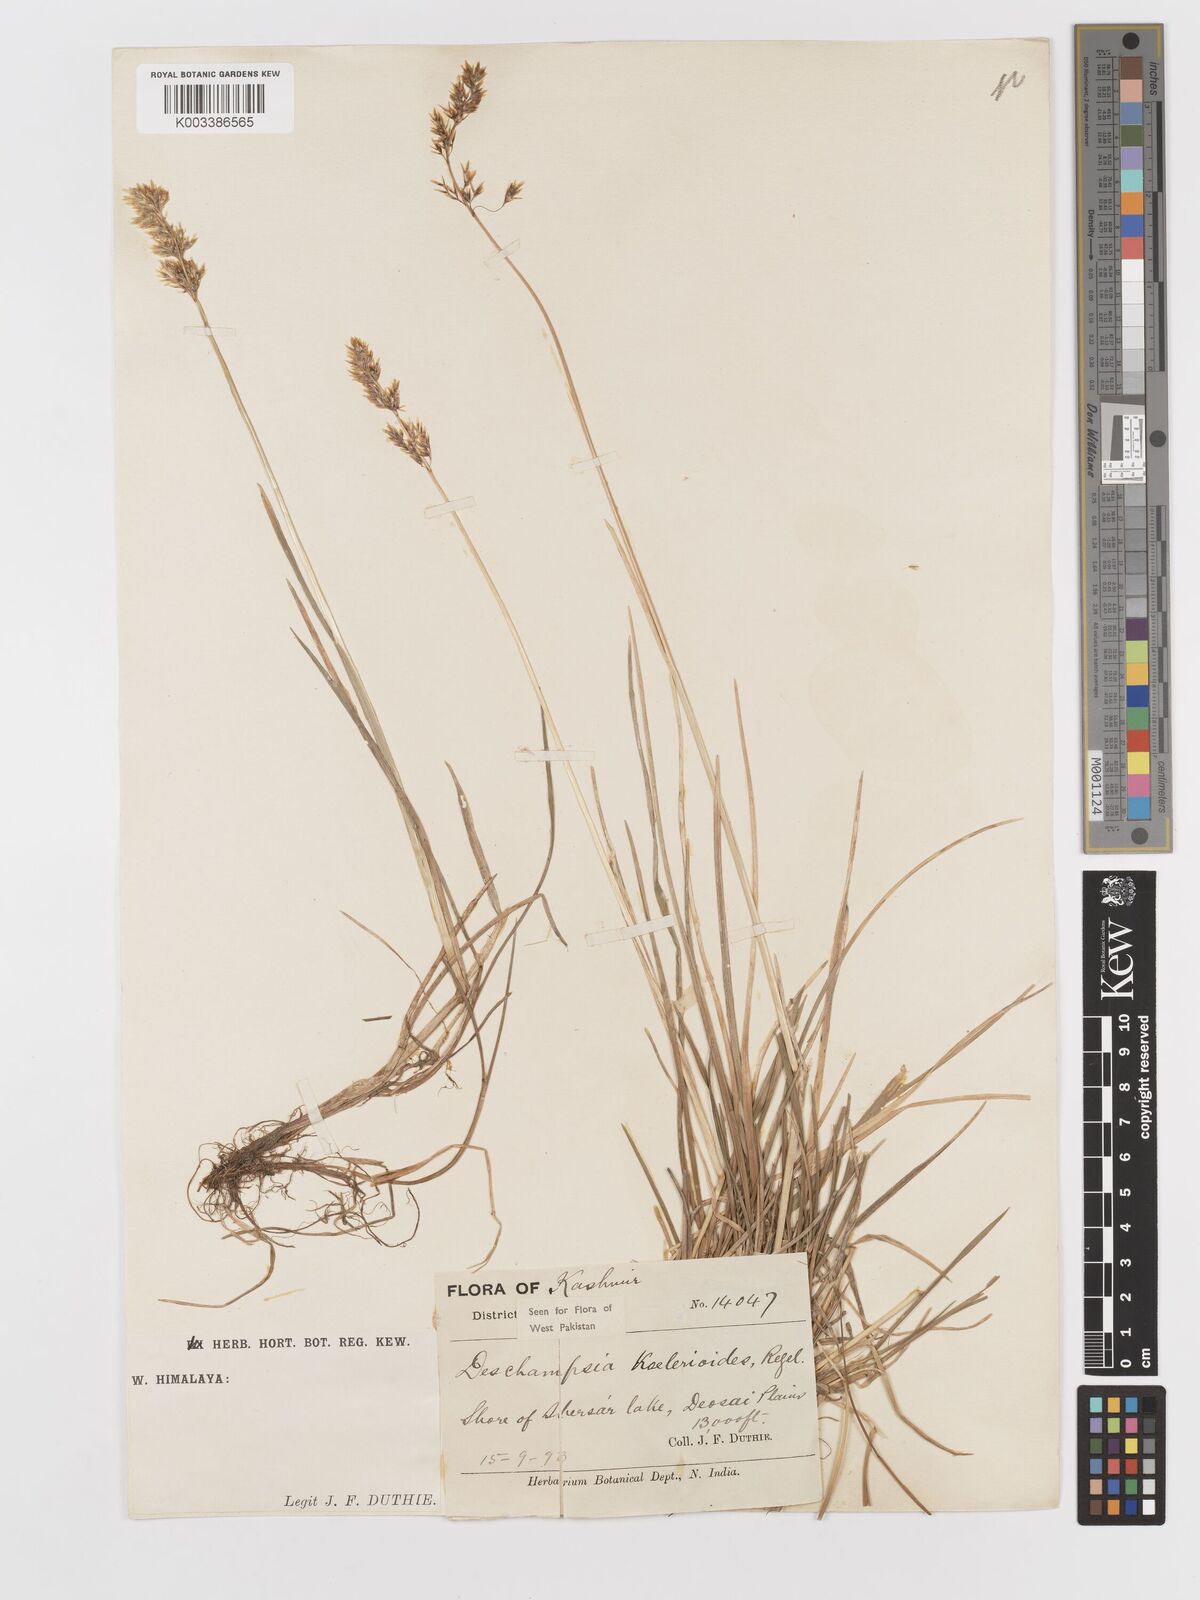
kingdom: Plantae
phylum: Tracheophyta
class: Liliopsida
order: Poales
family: Poaceae
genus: Deschampsia
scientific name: Deschampsia koelerioides
